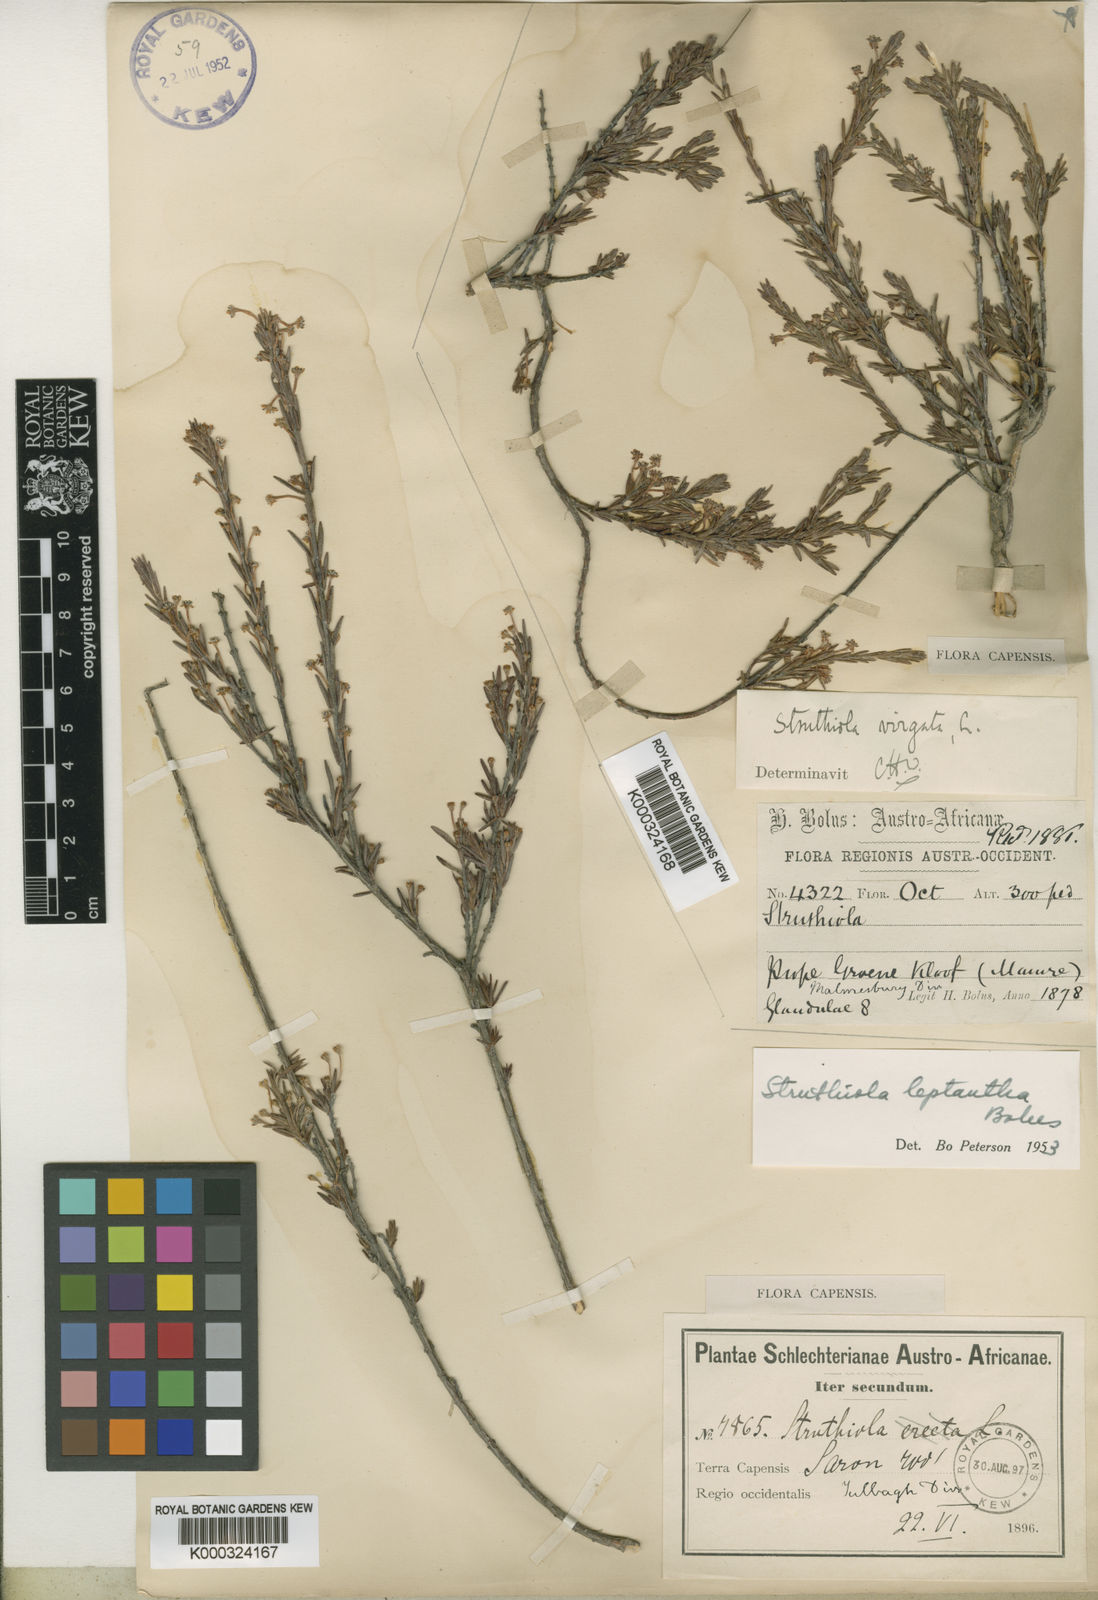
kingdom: Plantae
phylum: Tracheophyta
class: Magnoliopsida
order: Malvales
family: Thymelaeaceae
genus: Struthiola
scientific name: Struthiola leptantha
